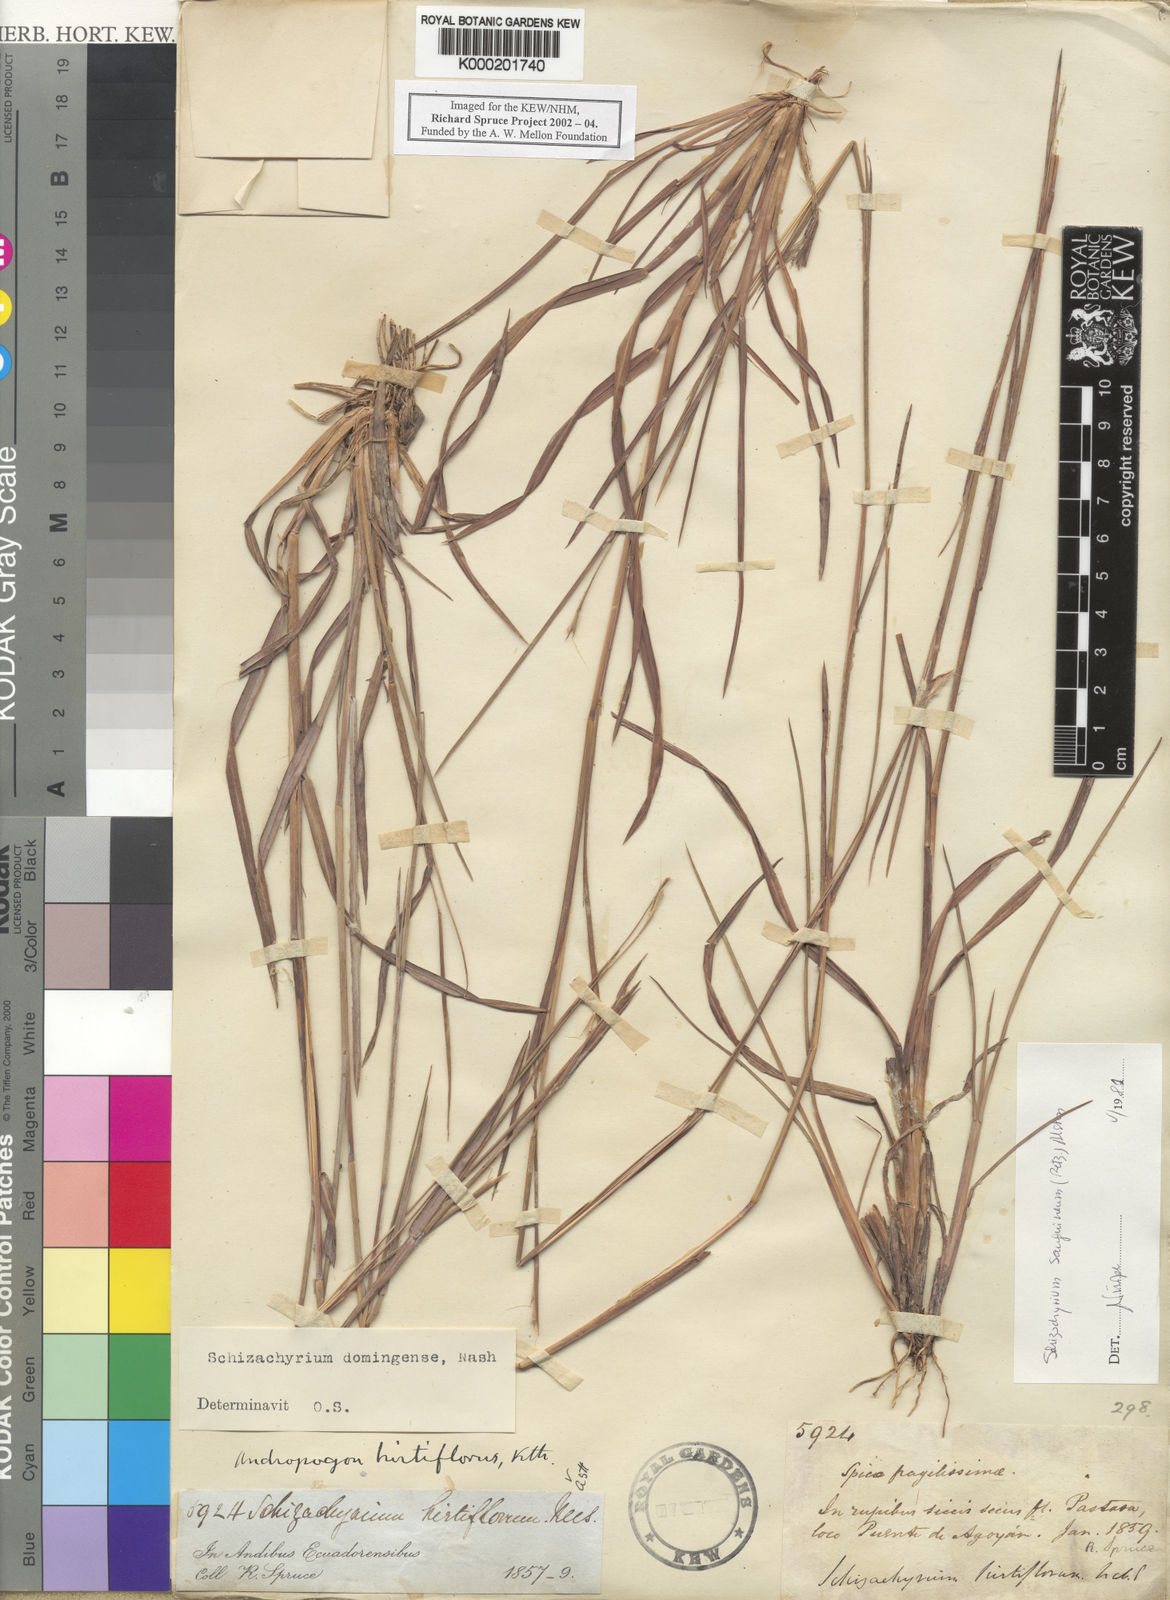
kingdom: Plantae
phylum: Tracheophyta
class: Liliopsida
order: Poales
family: Poaceae
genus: Schizachyrium
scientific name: Schizachyrium sanguineum
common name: Crimson bluestem
